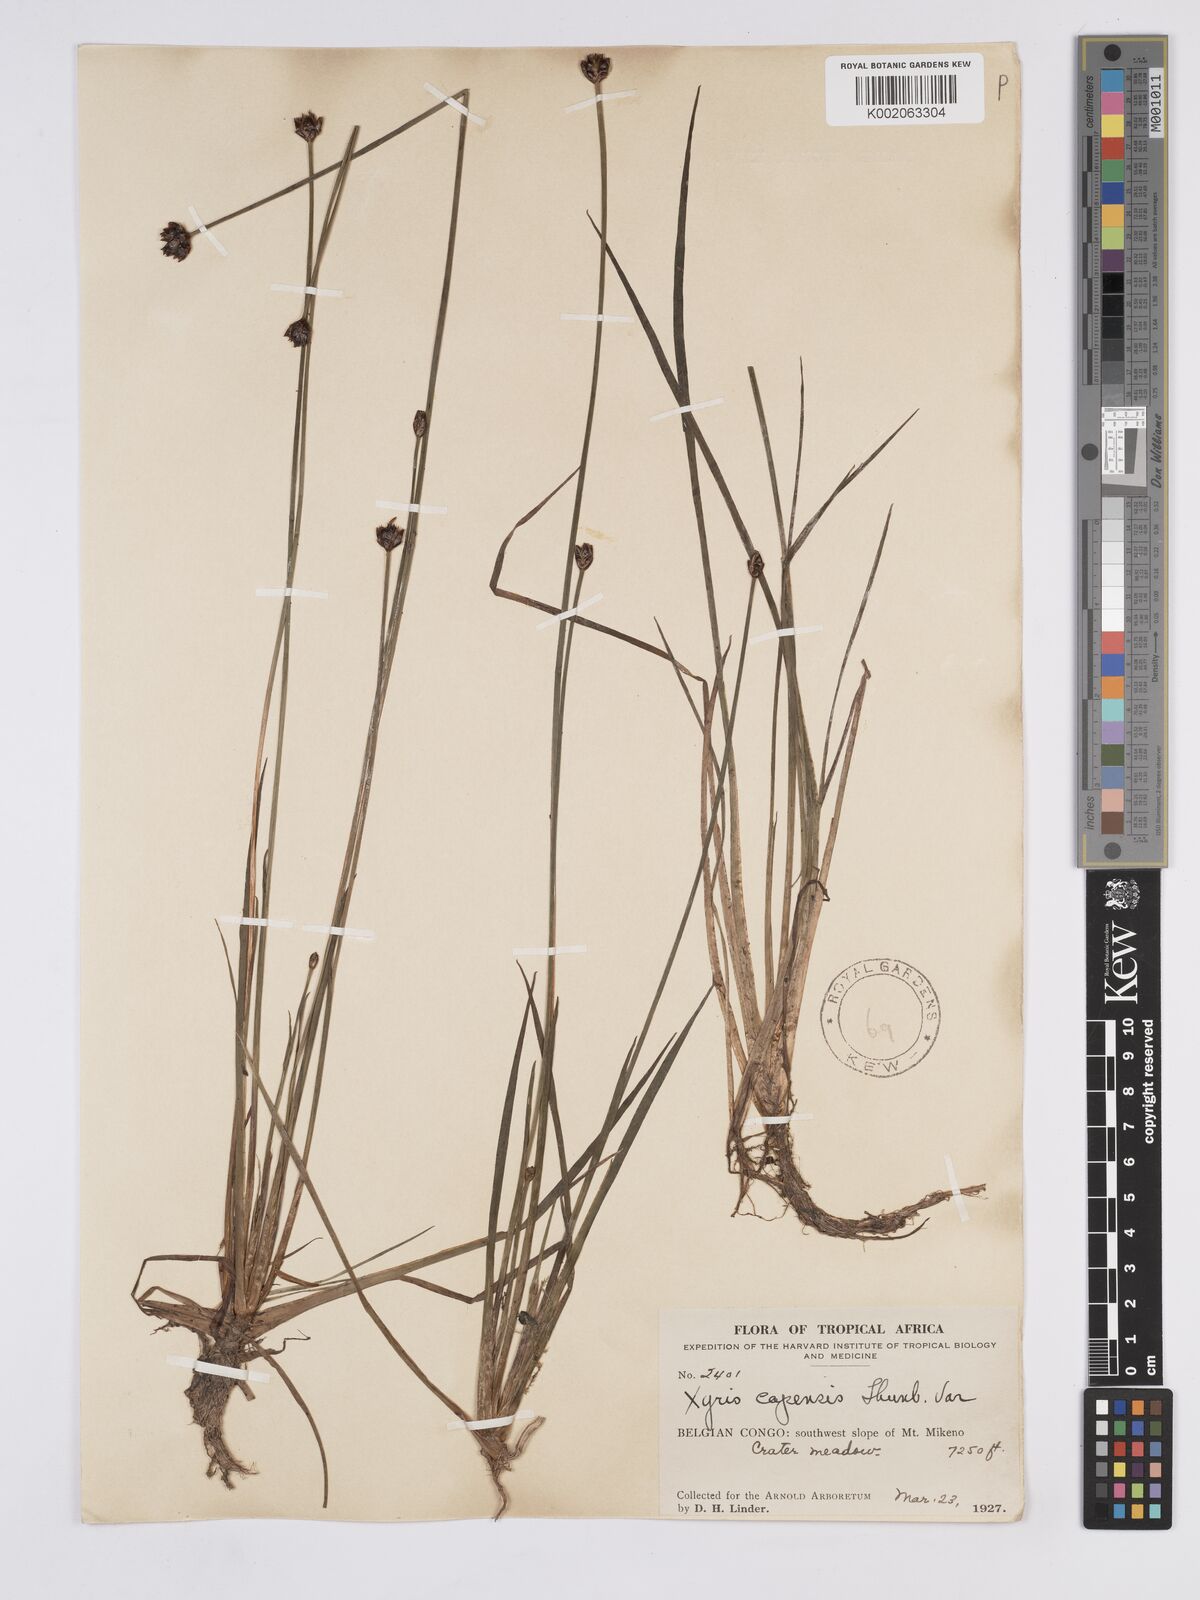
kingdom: Plantae
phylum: Tracheophyta
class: Liliopsida
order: Poales
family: Xyridaceae
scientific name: Xyridaceae
